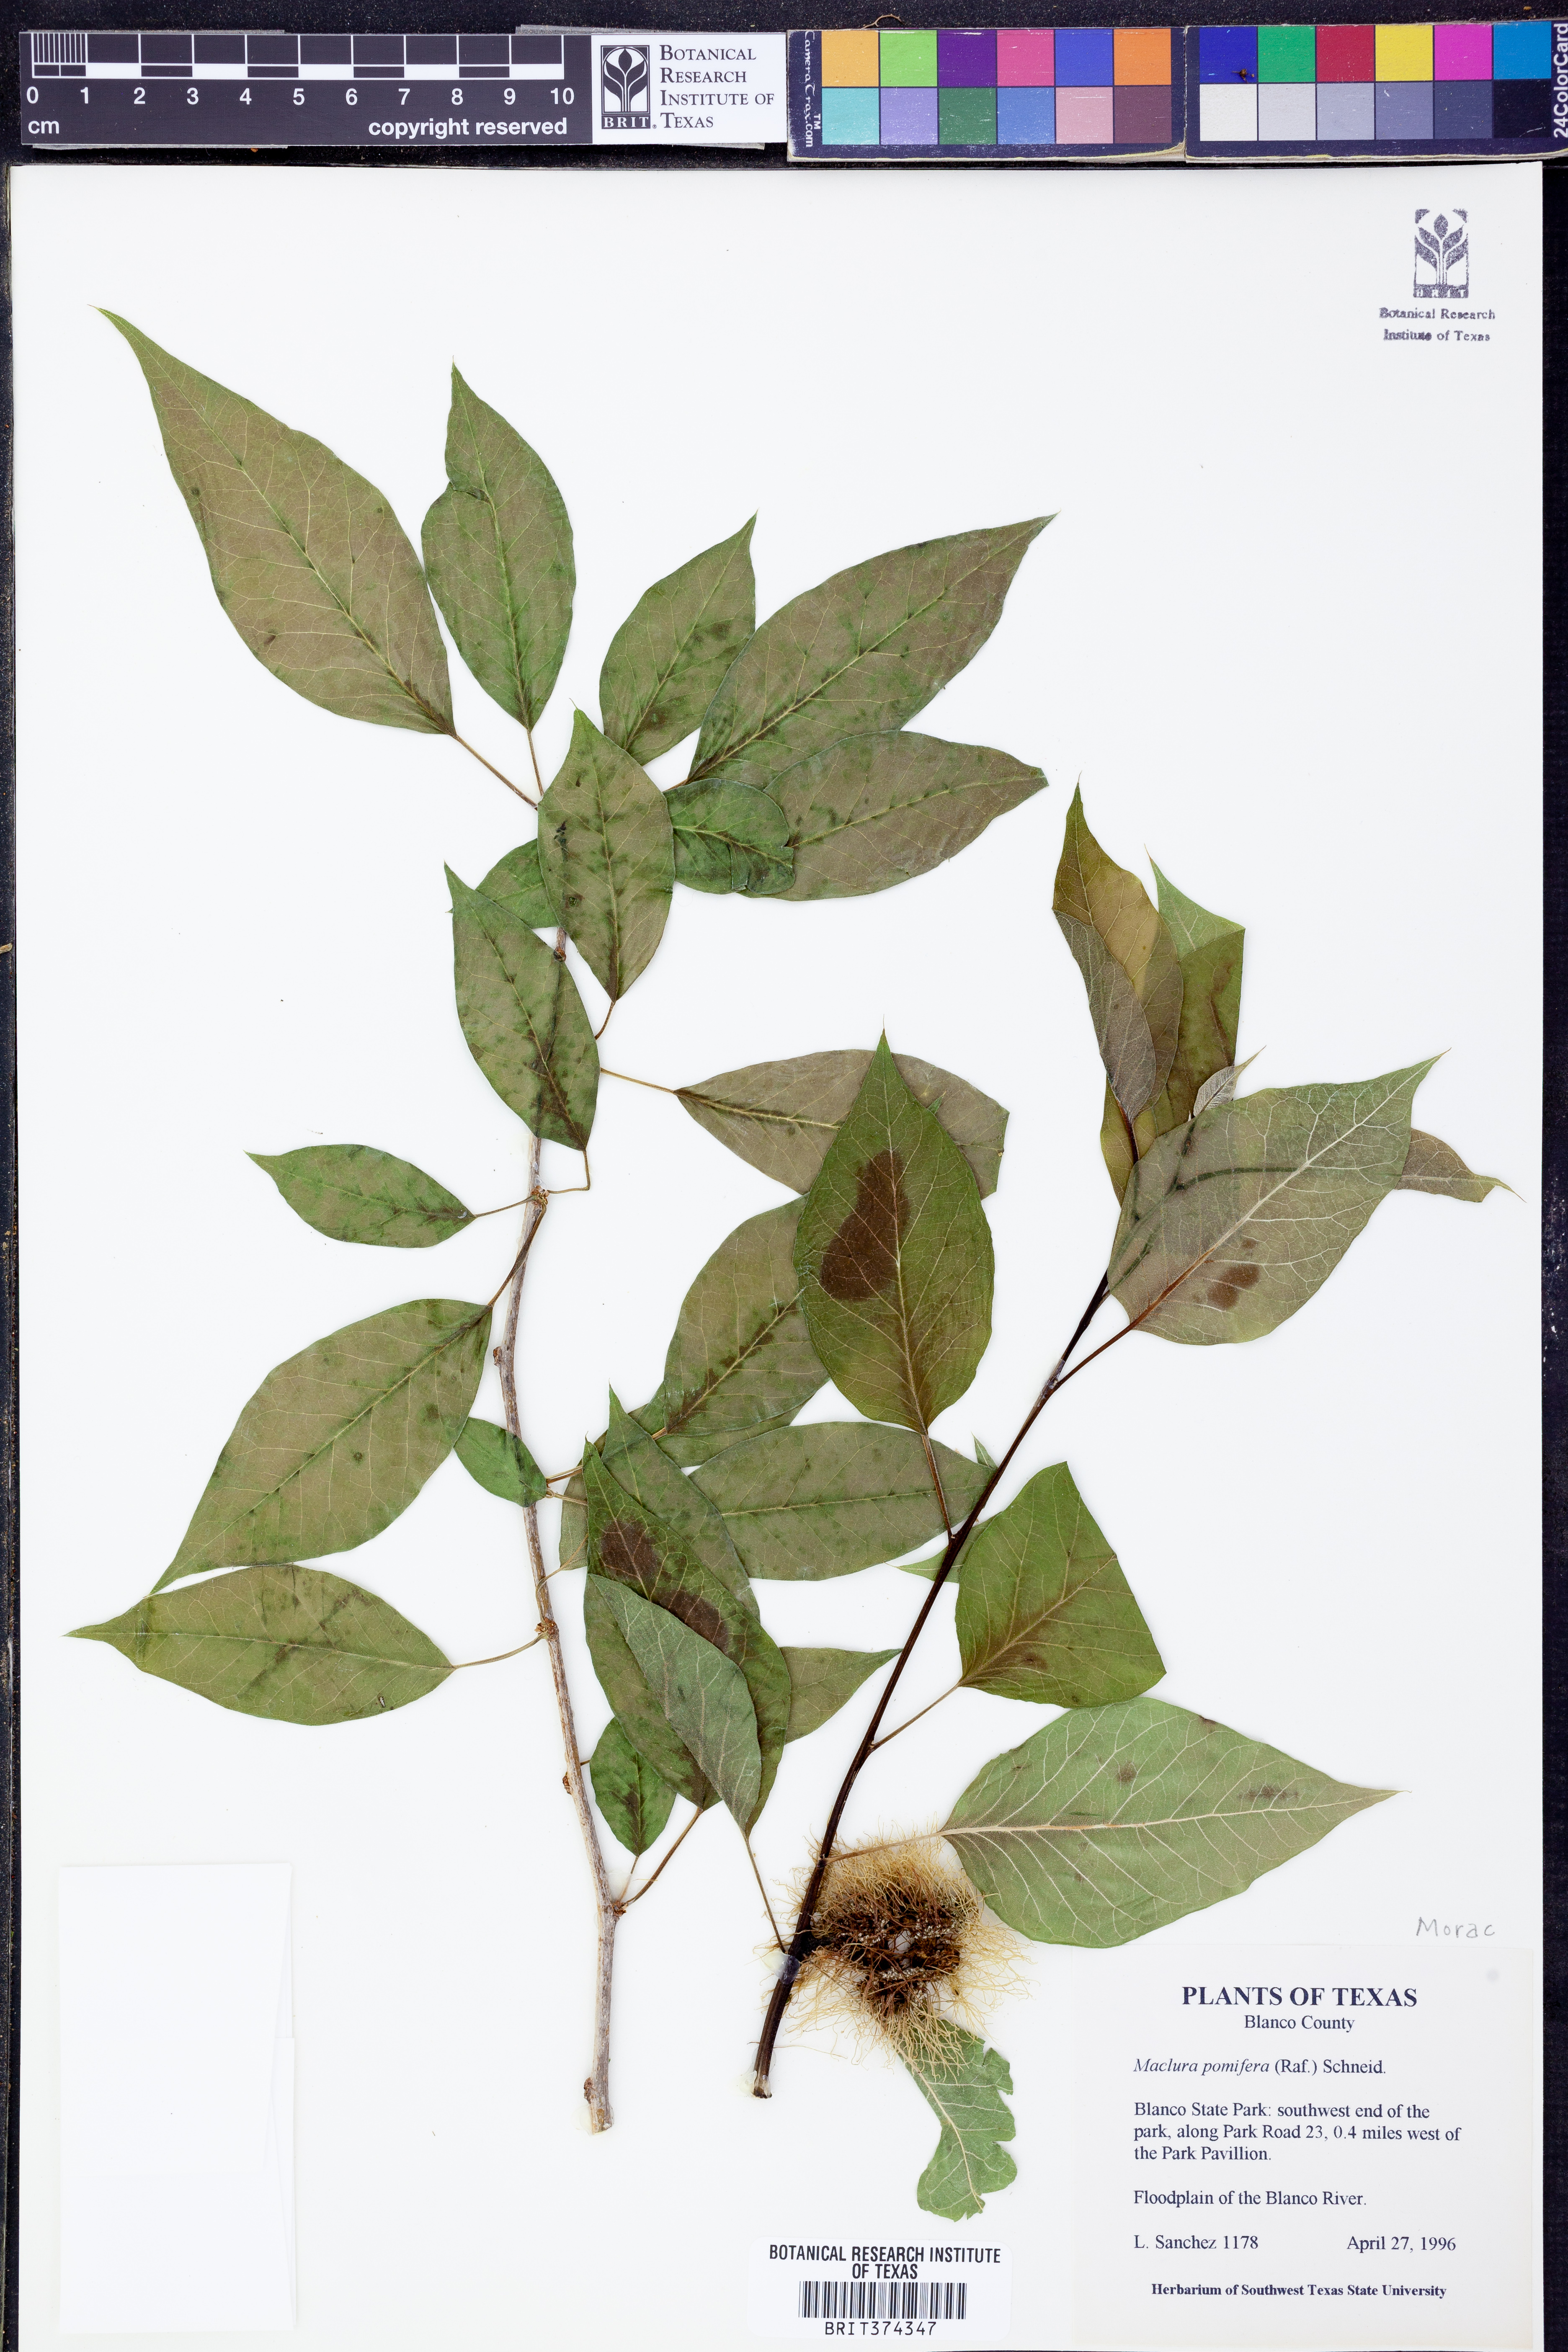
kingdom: Plantae
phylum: Tracheophyta
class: Magnoliopsida
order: Rosales
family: Moraceae
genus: Maclura
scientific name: Maclura pomifera
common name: Osage-orange
